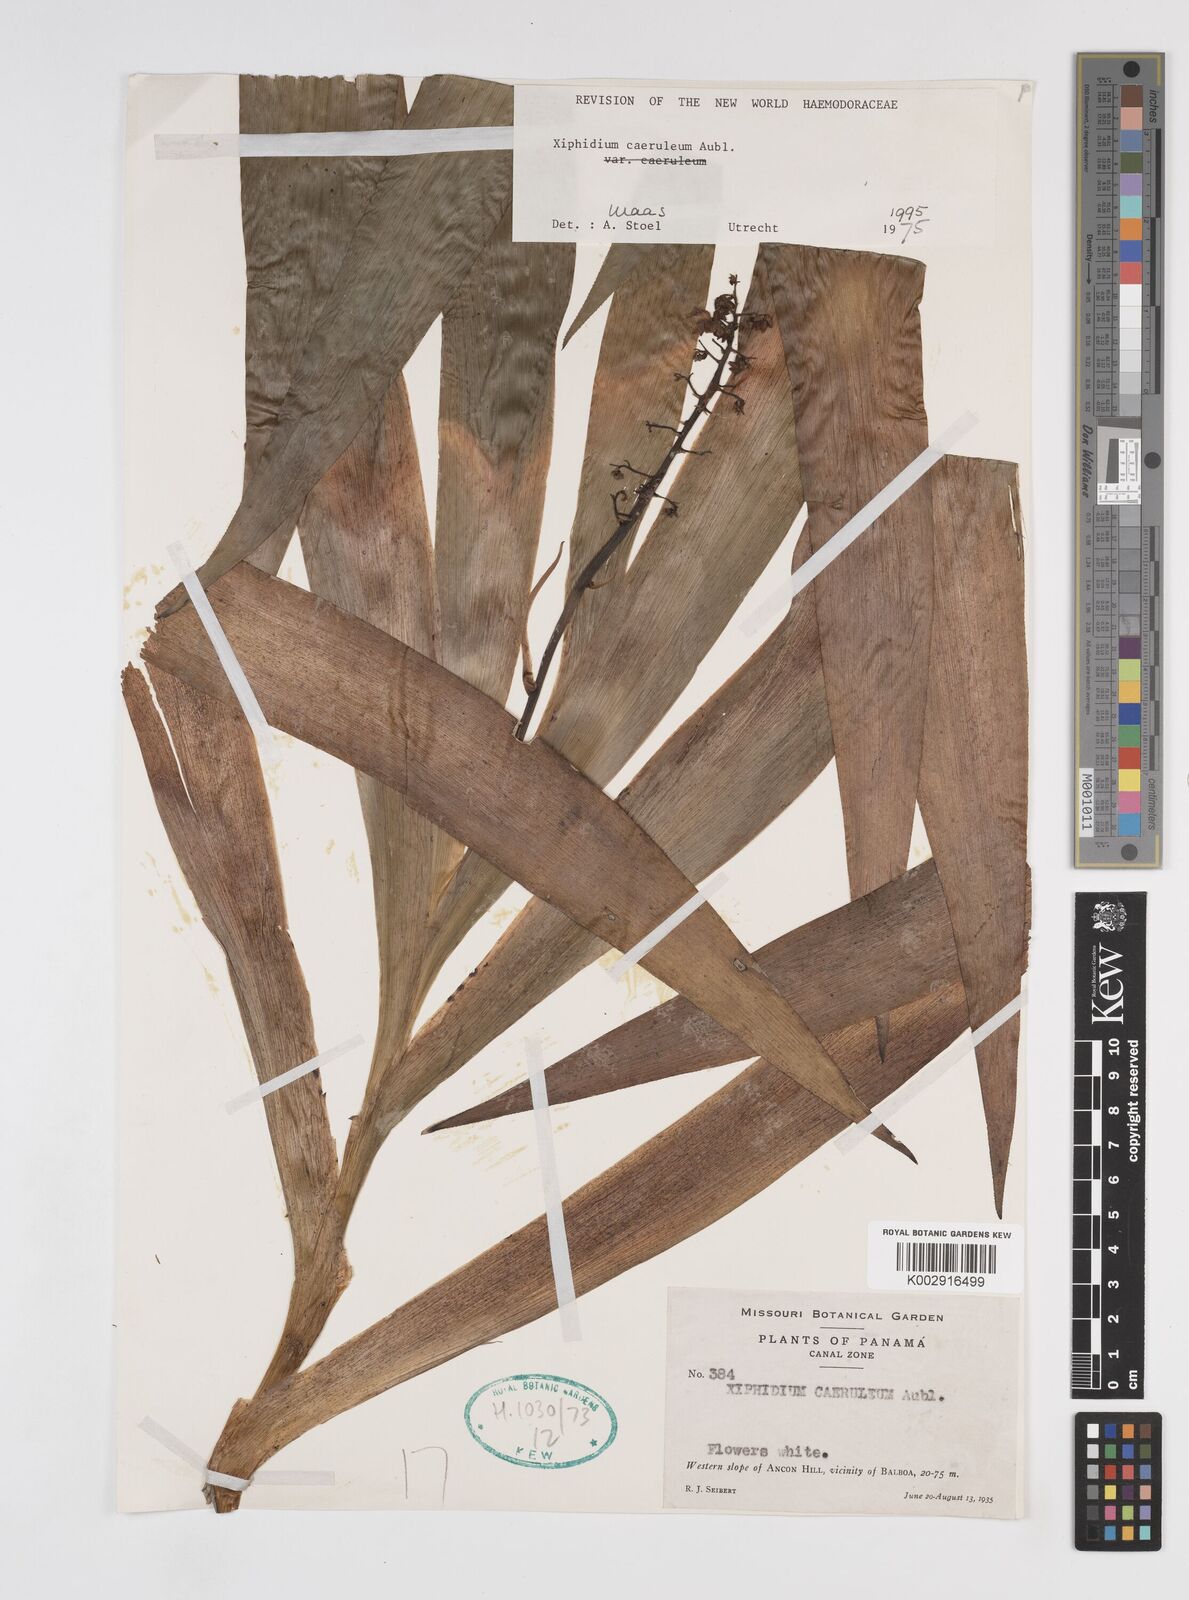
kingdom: Plantae
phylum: Tracheophyta
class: Liliopsida
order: Commelinales
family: Haemodoraceae
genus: Xiphidium
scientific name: Xiphidium caeruleum
